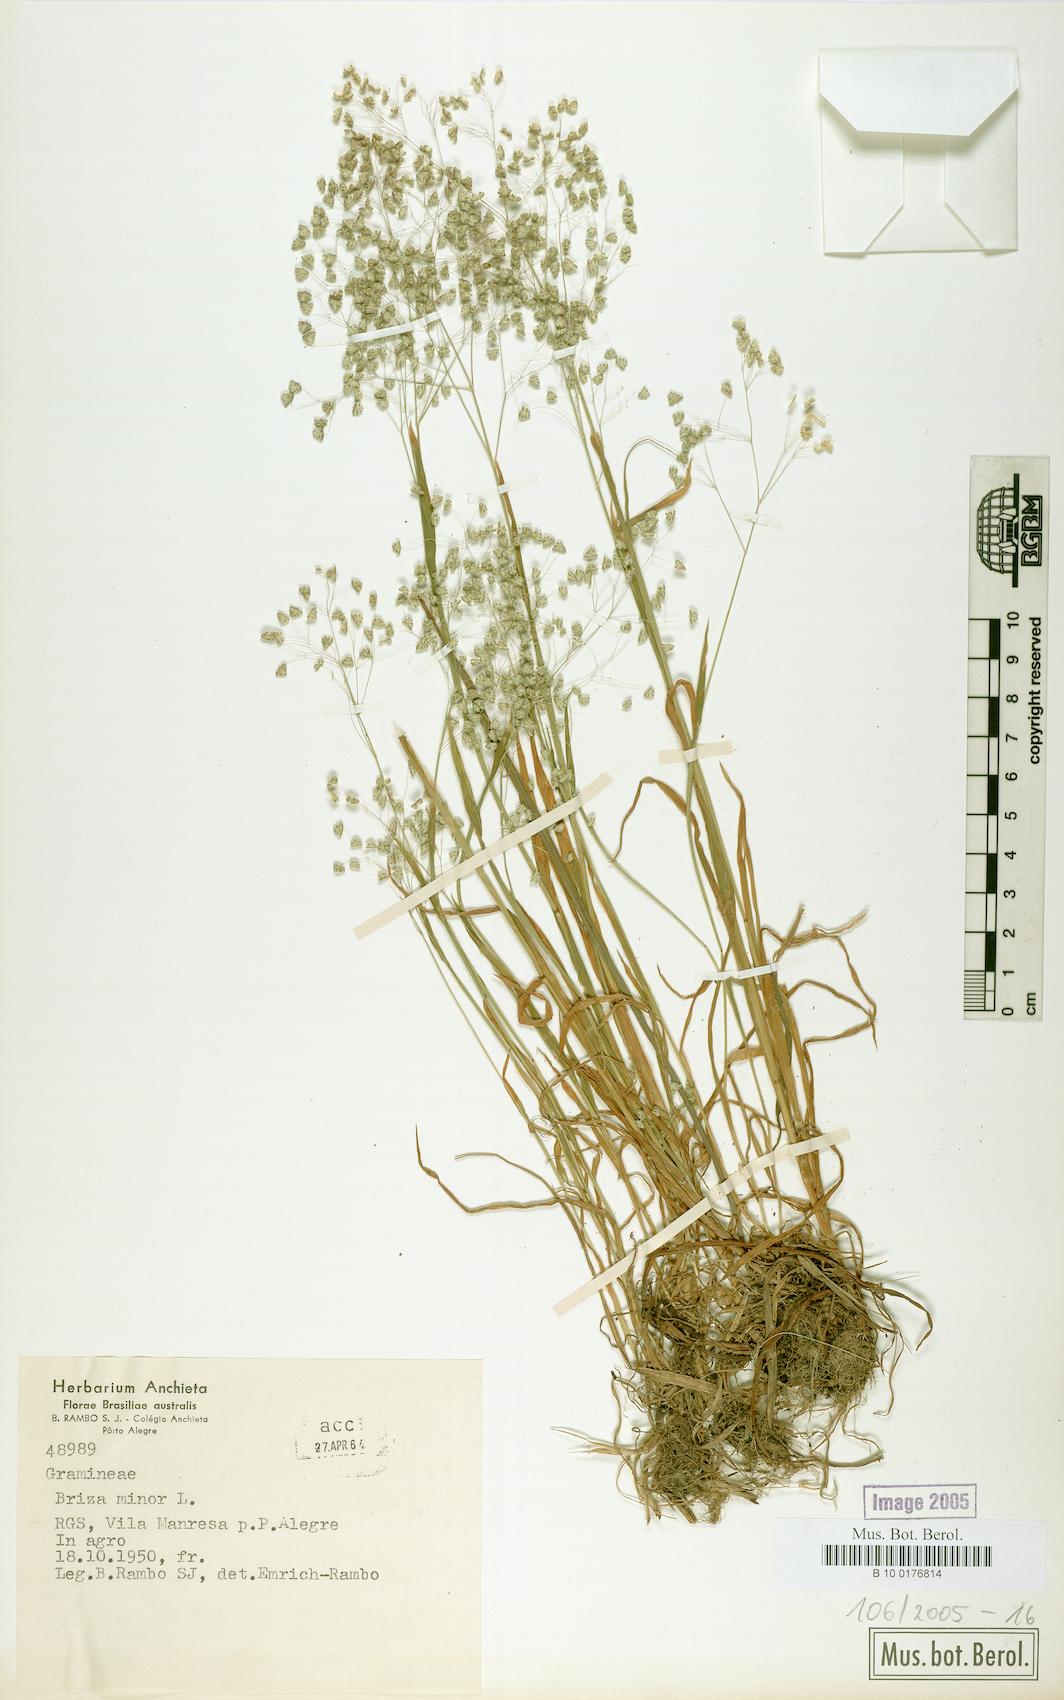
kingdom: Plantae
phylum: Tracheophyta
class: Liliopsida
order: Poales
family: Poaceae
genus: Briza
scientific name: Briza minor
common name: Lesser quaking-grass
